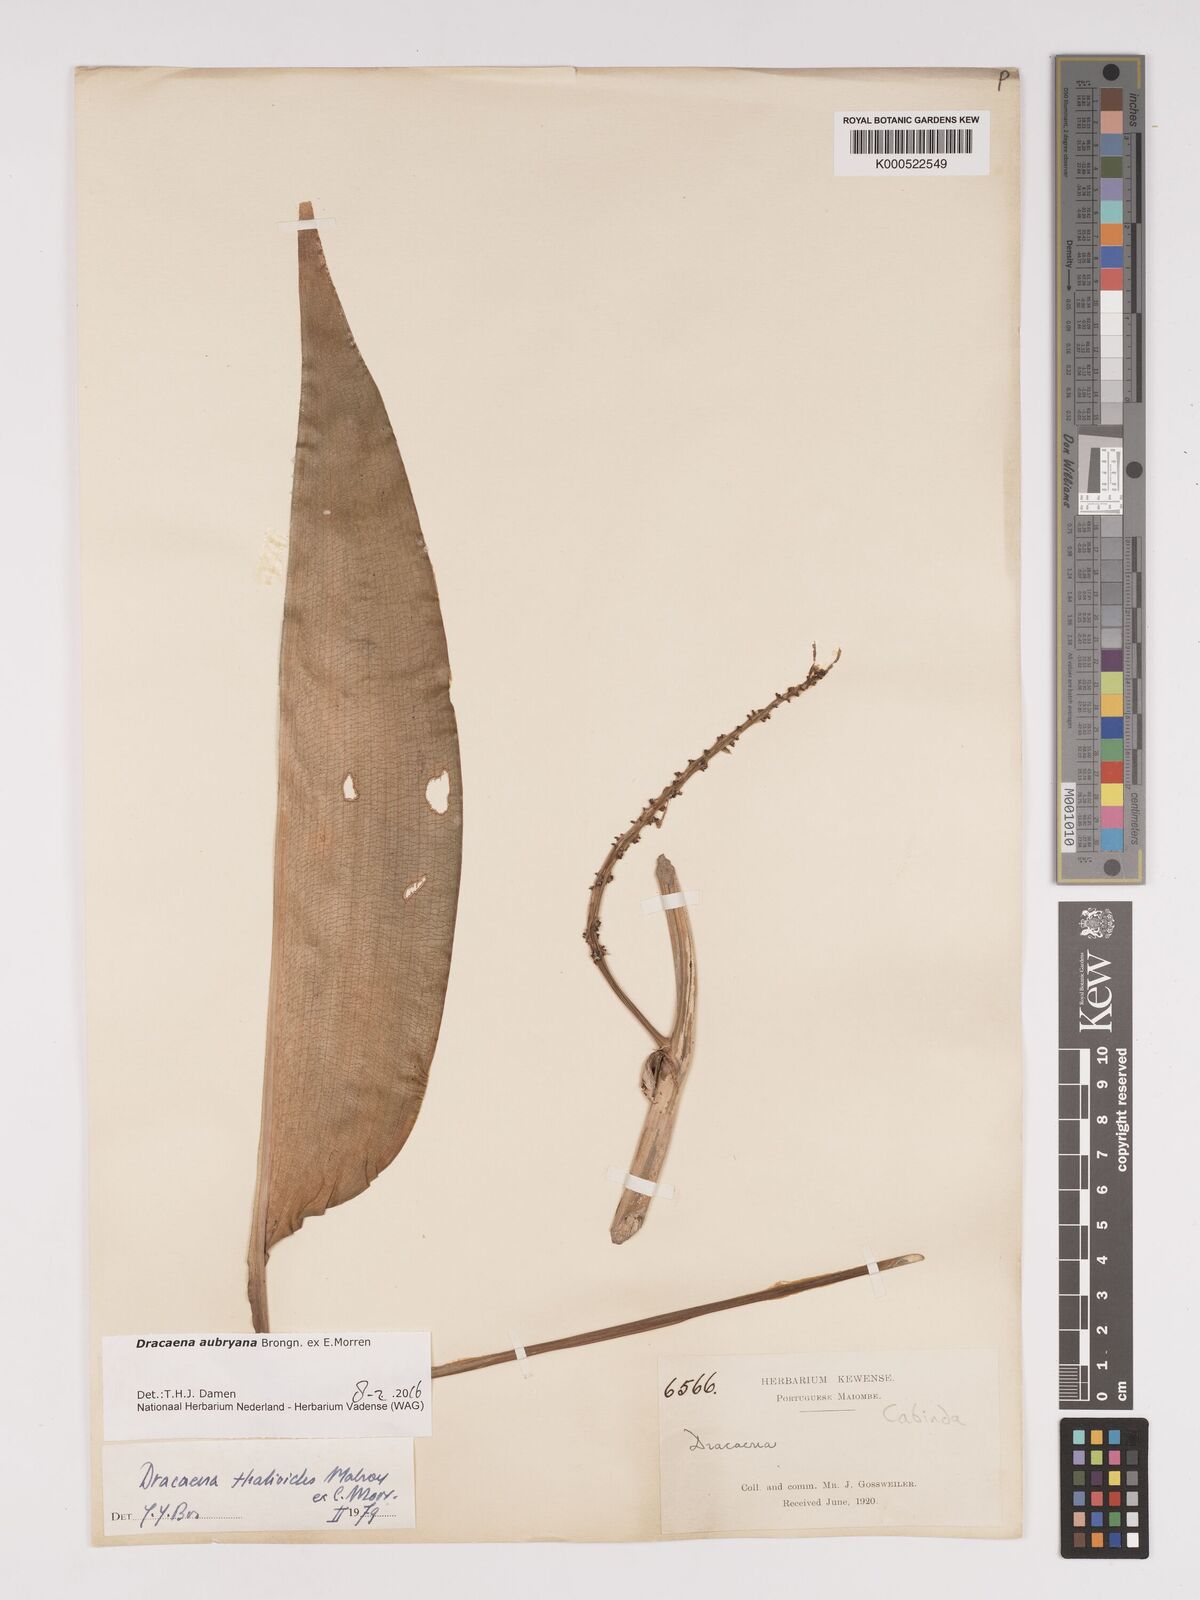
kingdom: Plantae
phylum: Tracheophyta
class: Liliopsida
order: Asparagales
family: Asparagaceae
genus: Dracaena
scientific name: Dracaena
